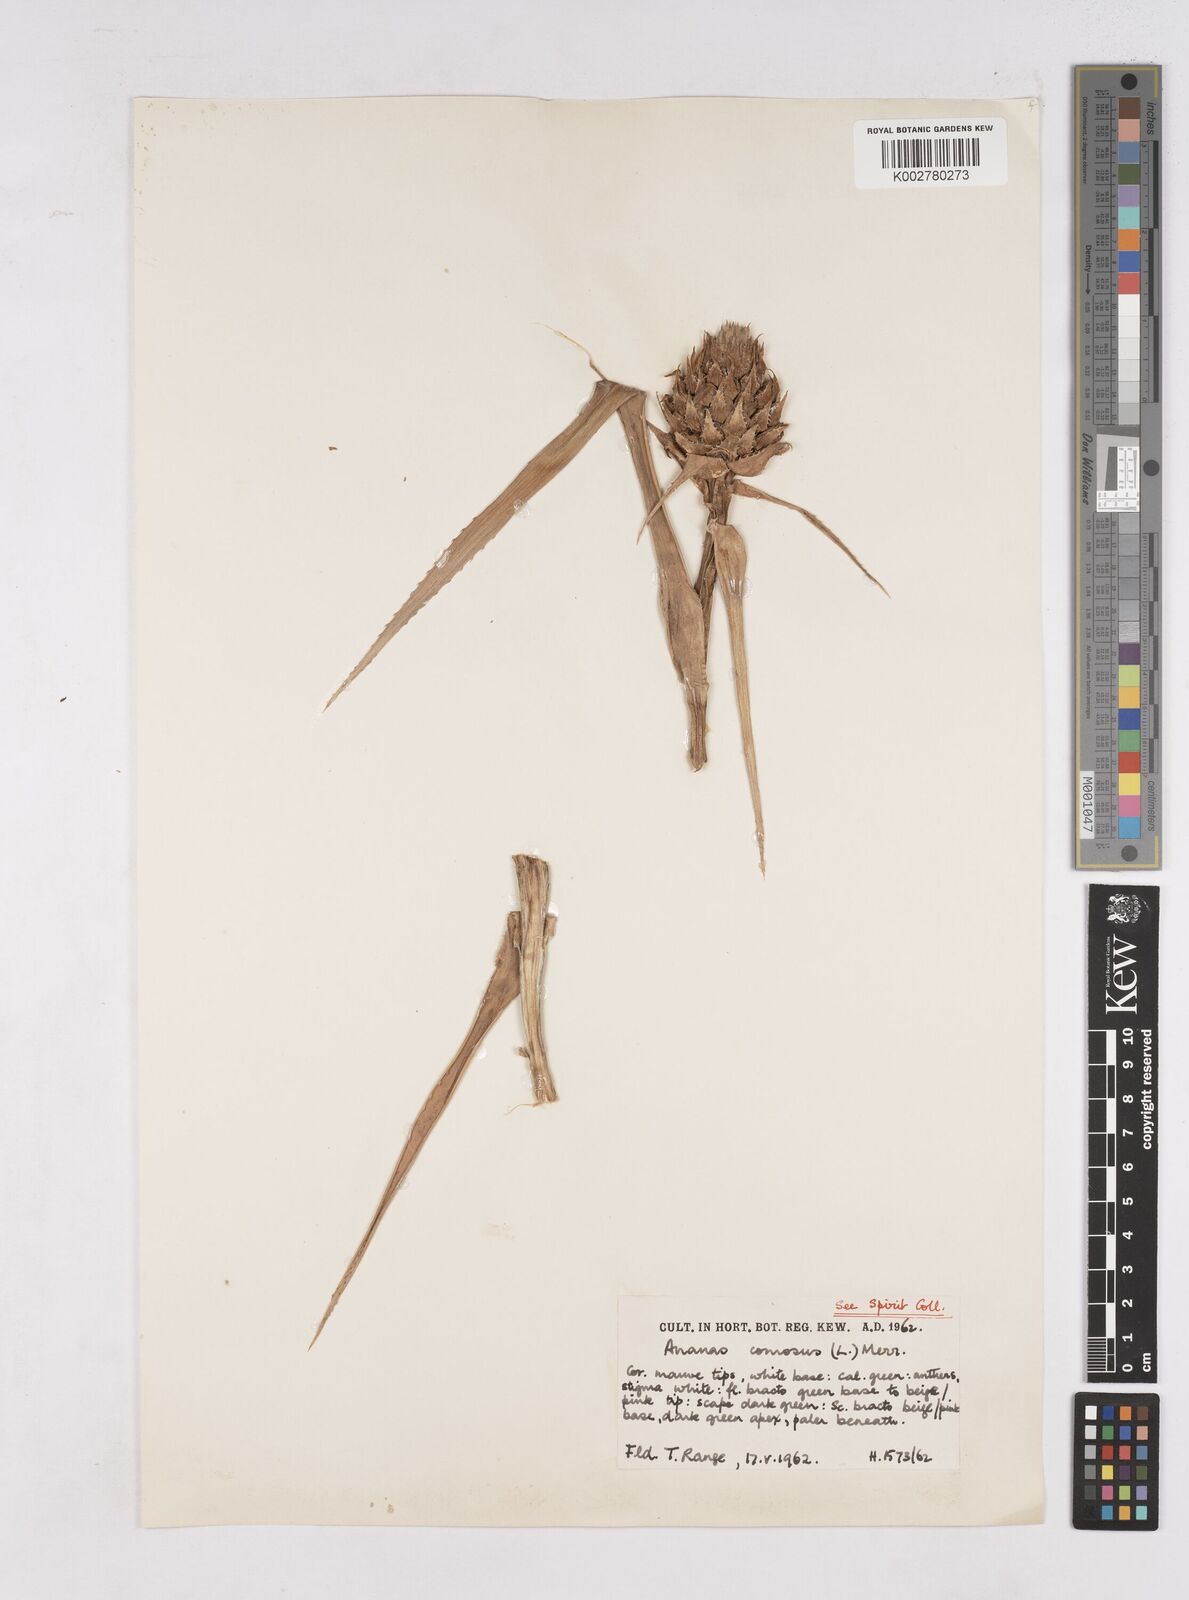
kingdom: Plantae
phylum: Tracheophyta
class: Liliopsida
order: Poales
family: Bromeliaceae
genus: Ananas
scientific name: Ananas comosus
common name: Pineapple
